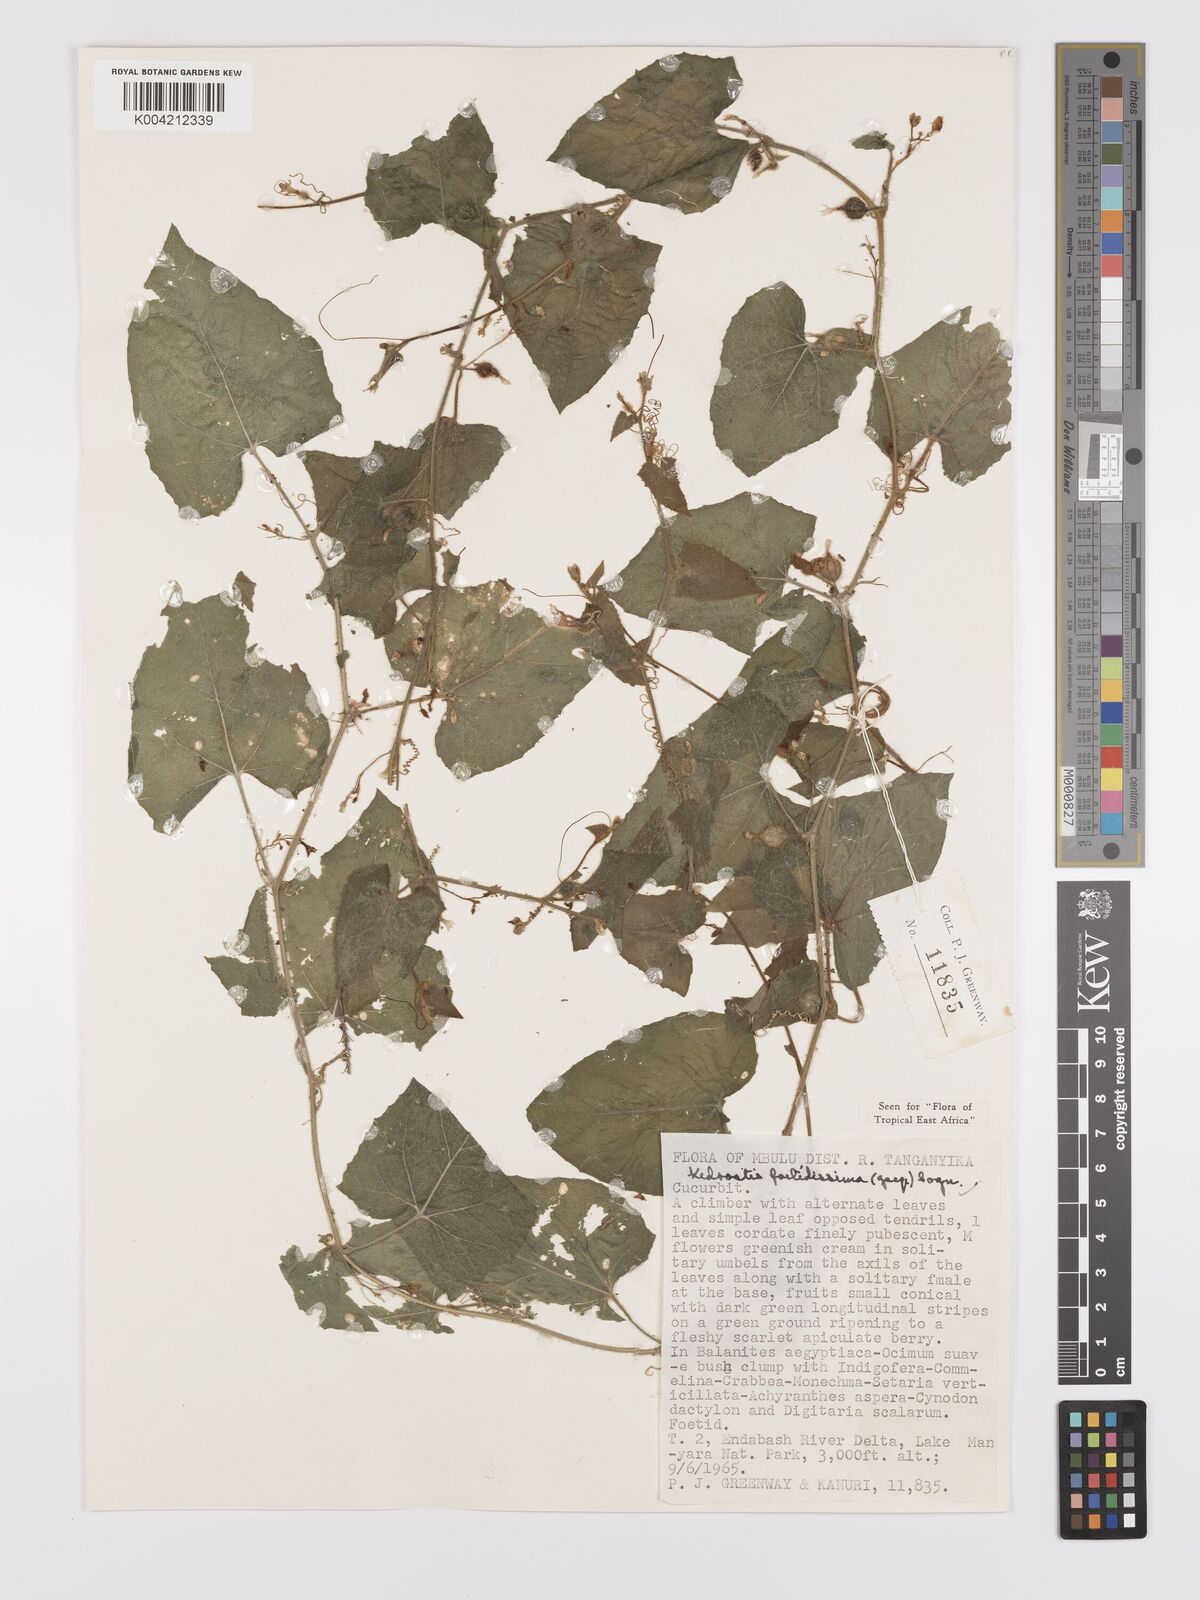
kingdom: Plantae
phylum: Tracheophyta
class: Magnoliopsida
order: Cucurbitales
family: Cucurbitaceae
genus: Kedrostis
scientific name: Kedrostis foetidissima
